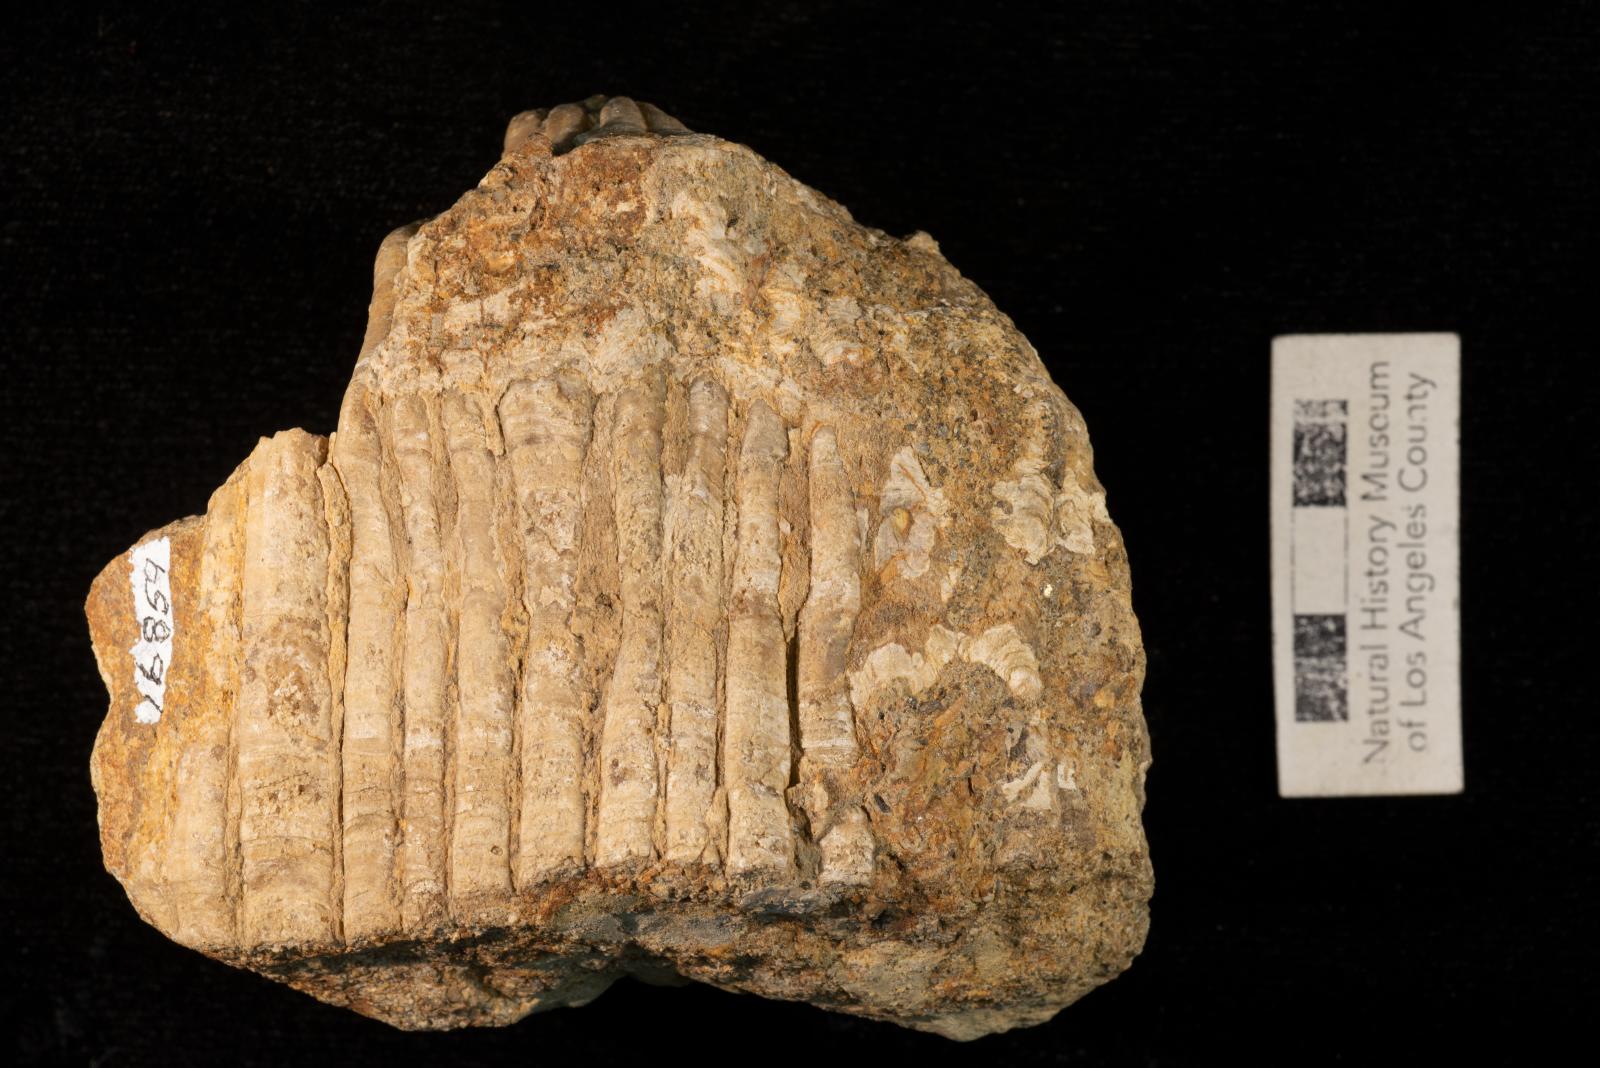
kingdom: Animalia
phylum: Mollusca
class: Bivalvia
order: Hippuritida
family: Radiolitidae
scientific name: Radiolitidae
